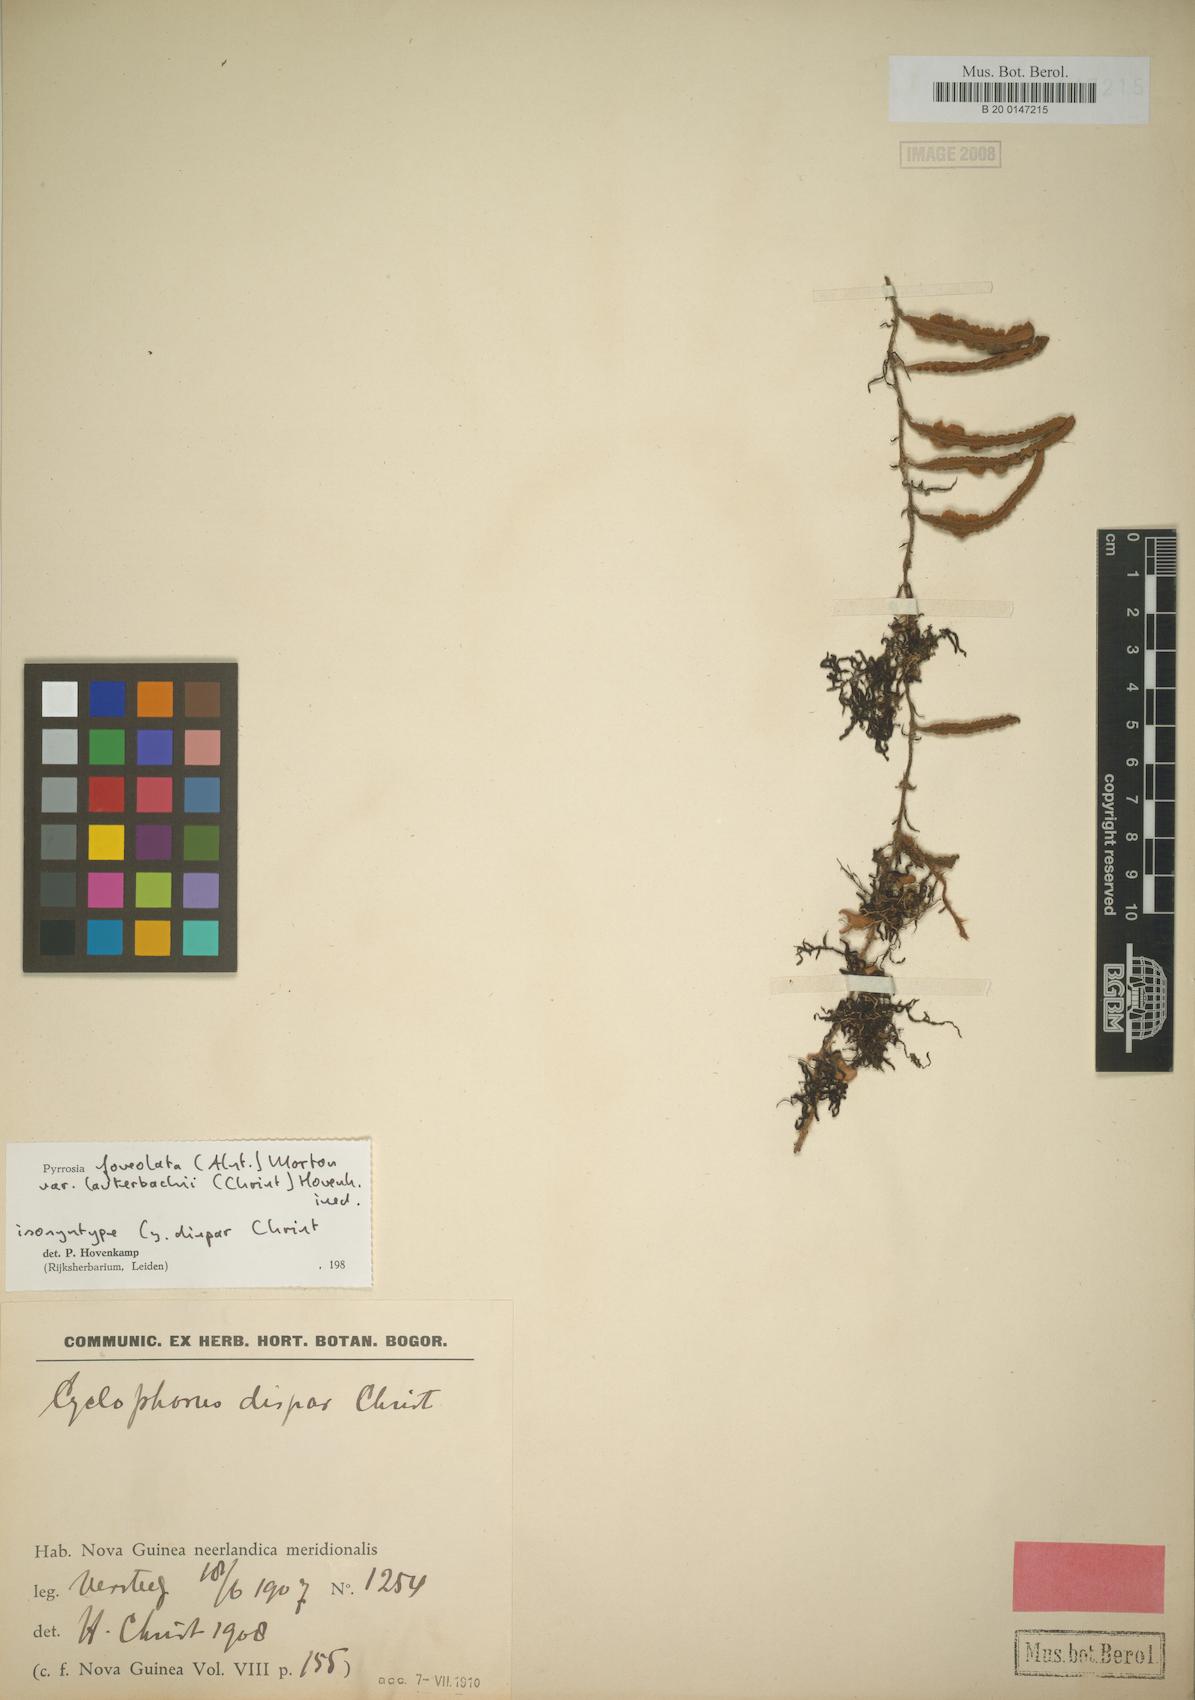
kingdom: Plantae
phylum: Tracheophyta
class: Polypodiopsida
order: Polypodiales
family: Polypodiaceae
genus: Pyrrosia
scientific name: Pyrrosia foveolata
